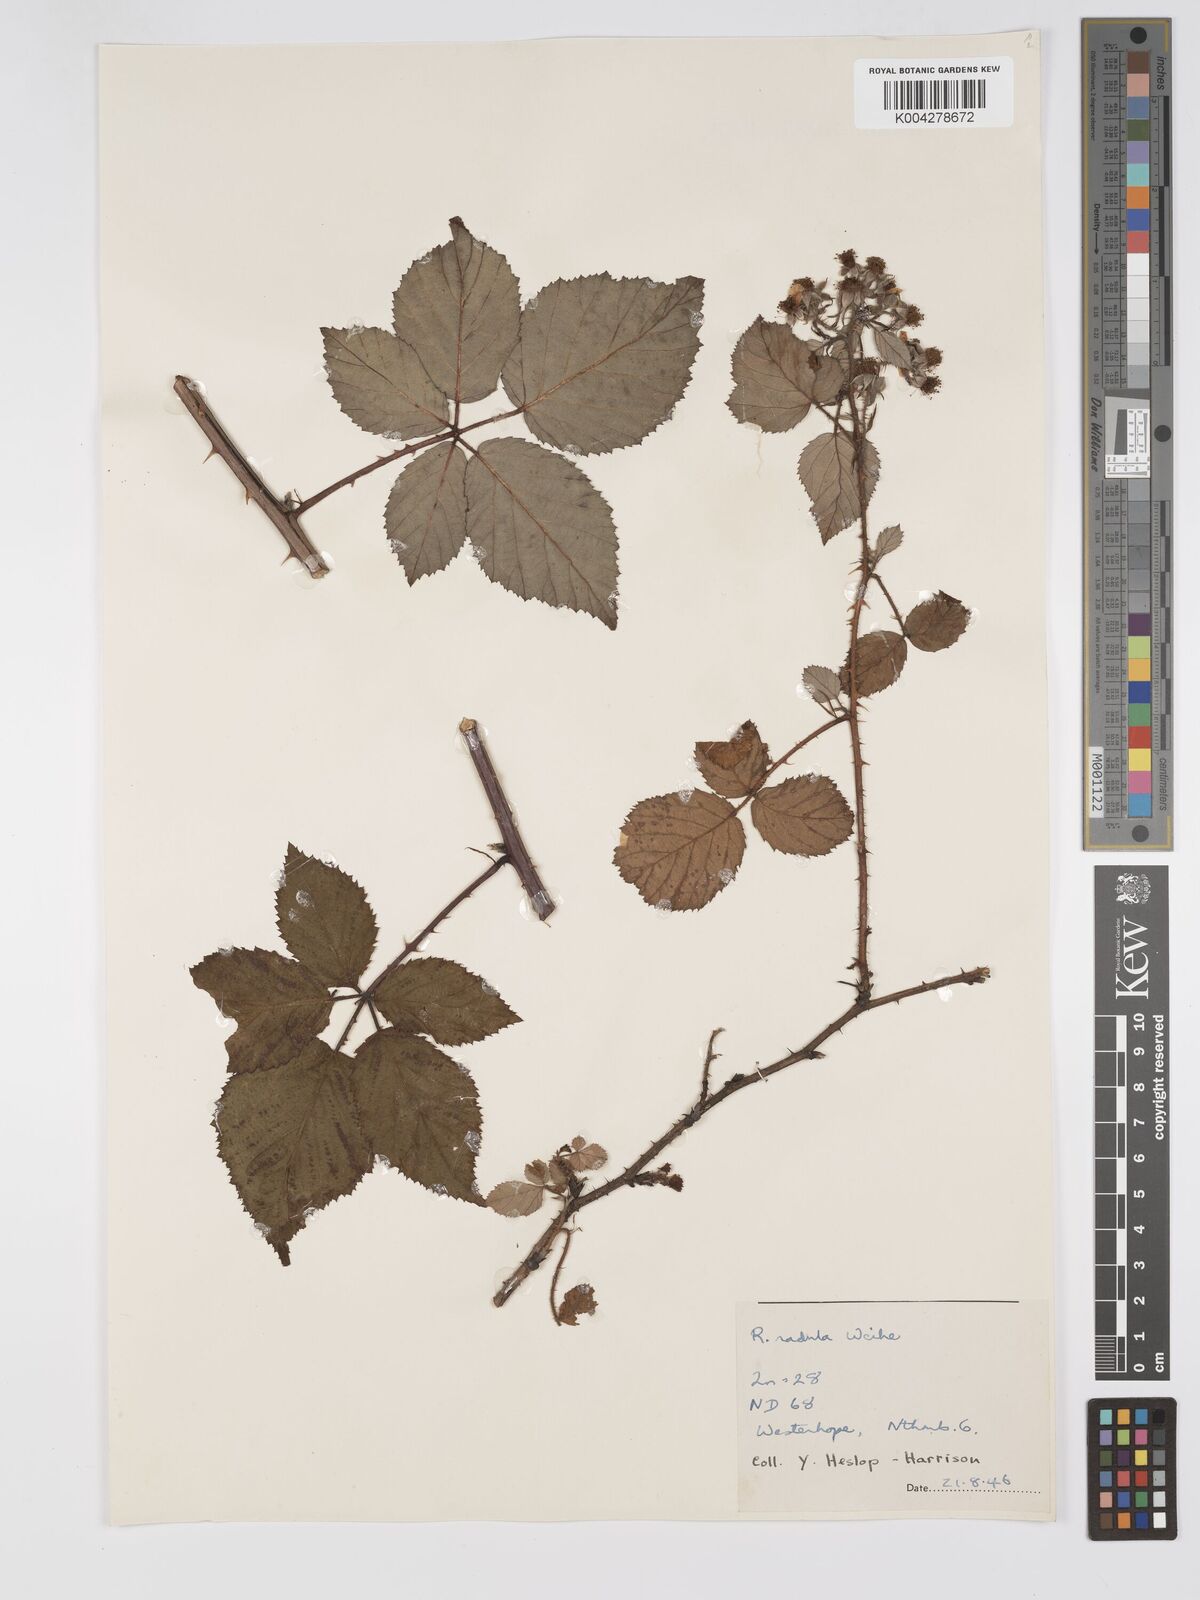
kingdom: Plantae
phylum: Tracheophyta
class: Magnoliopsida
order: Rosales
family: Rosaceae
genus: Rubus
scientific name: Rubus radula
